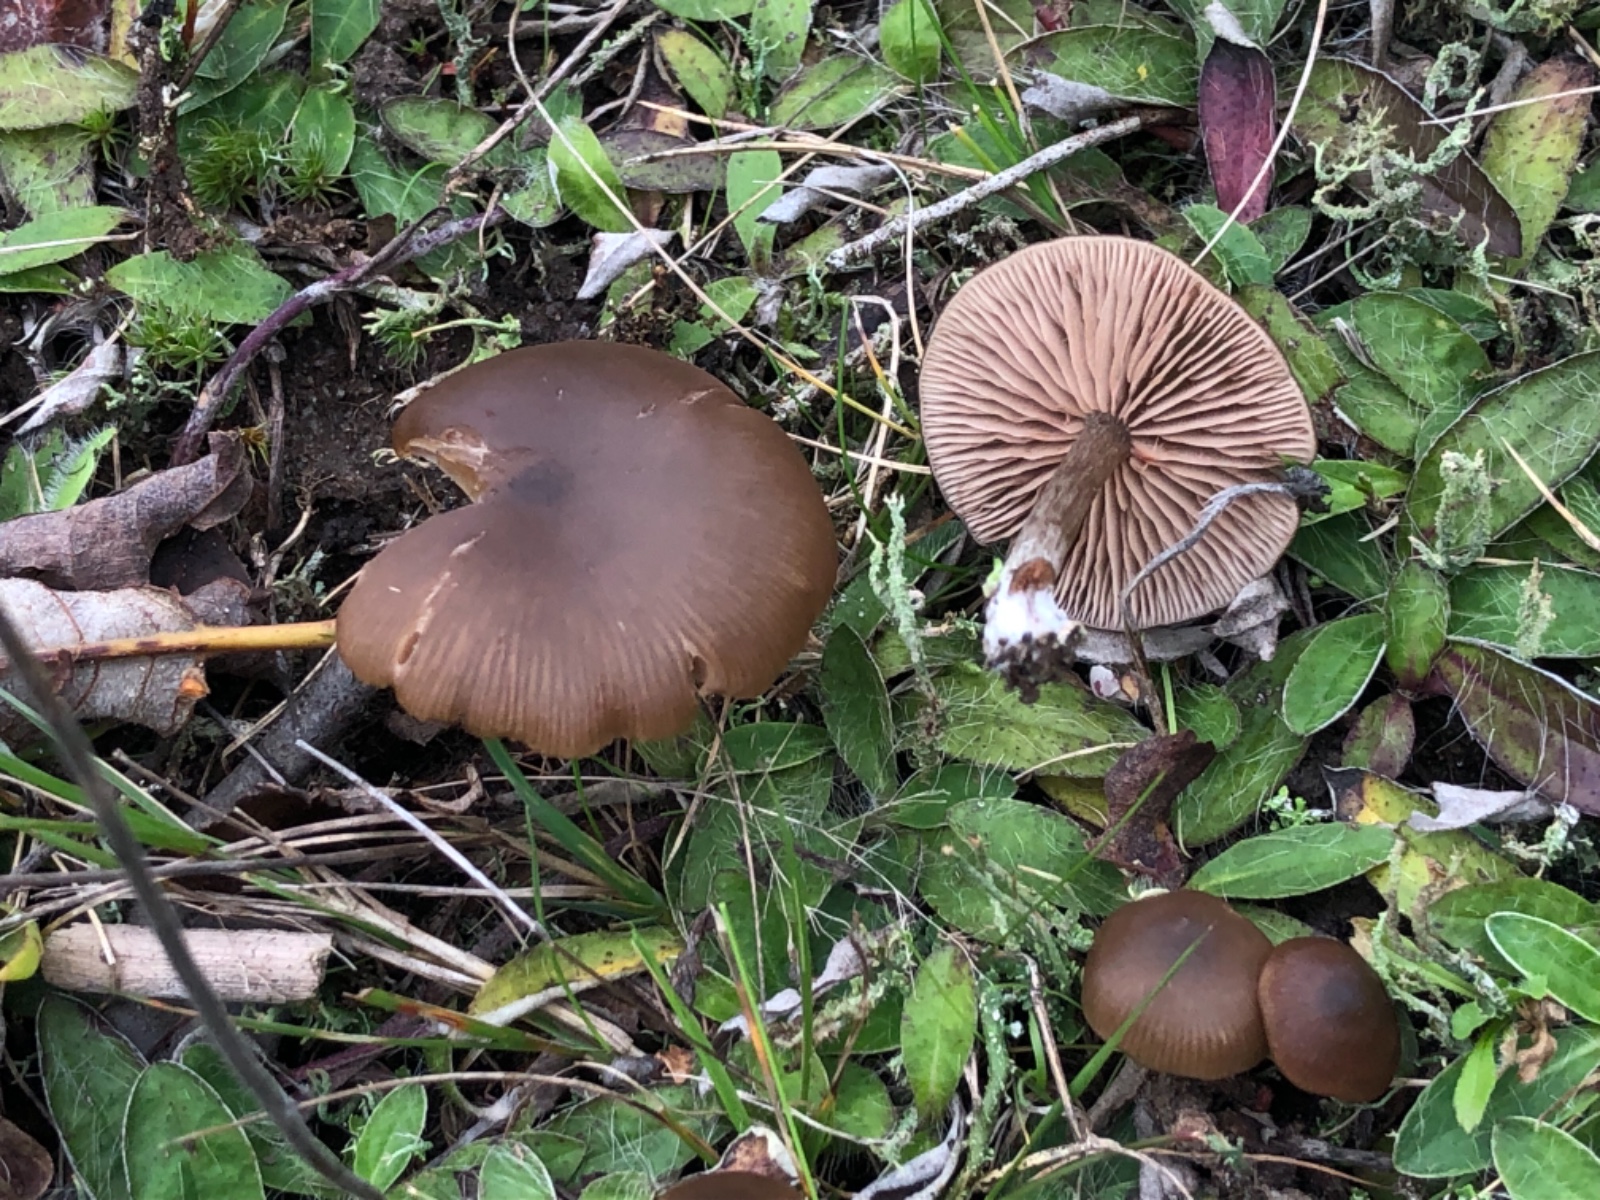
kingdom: Fungi
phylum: Basidiomycota
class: Agaricomycetes
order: Agaricales
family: Entolomataceae
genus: Entoloma
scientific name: Entoloma sericeum
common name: silkeglinsende rødblad
